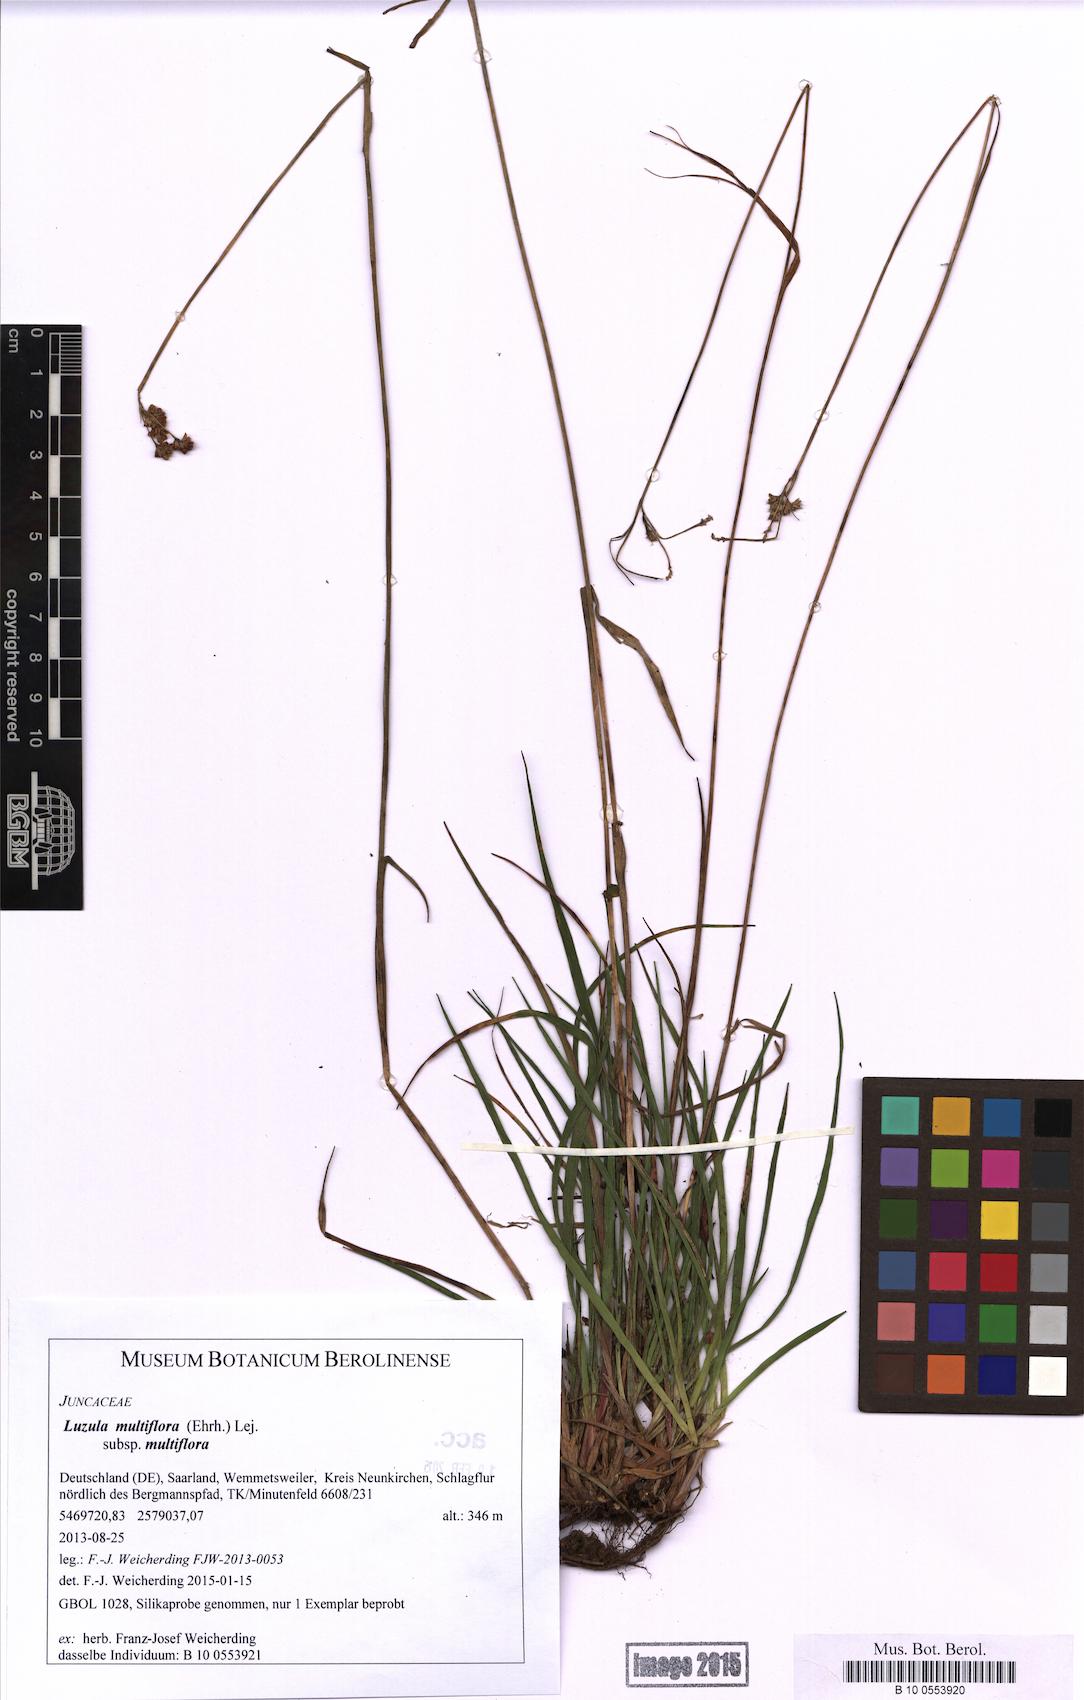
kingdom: Plantae
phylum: Tracheophyta
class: Liliopsida
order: Poales
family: Juncaceae
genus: Luzula
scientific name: Luzula multiflora
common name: Heath wood-rush
